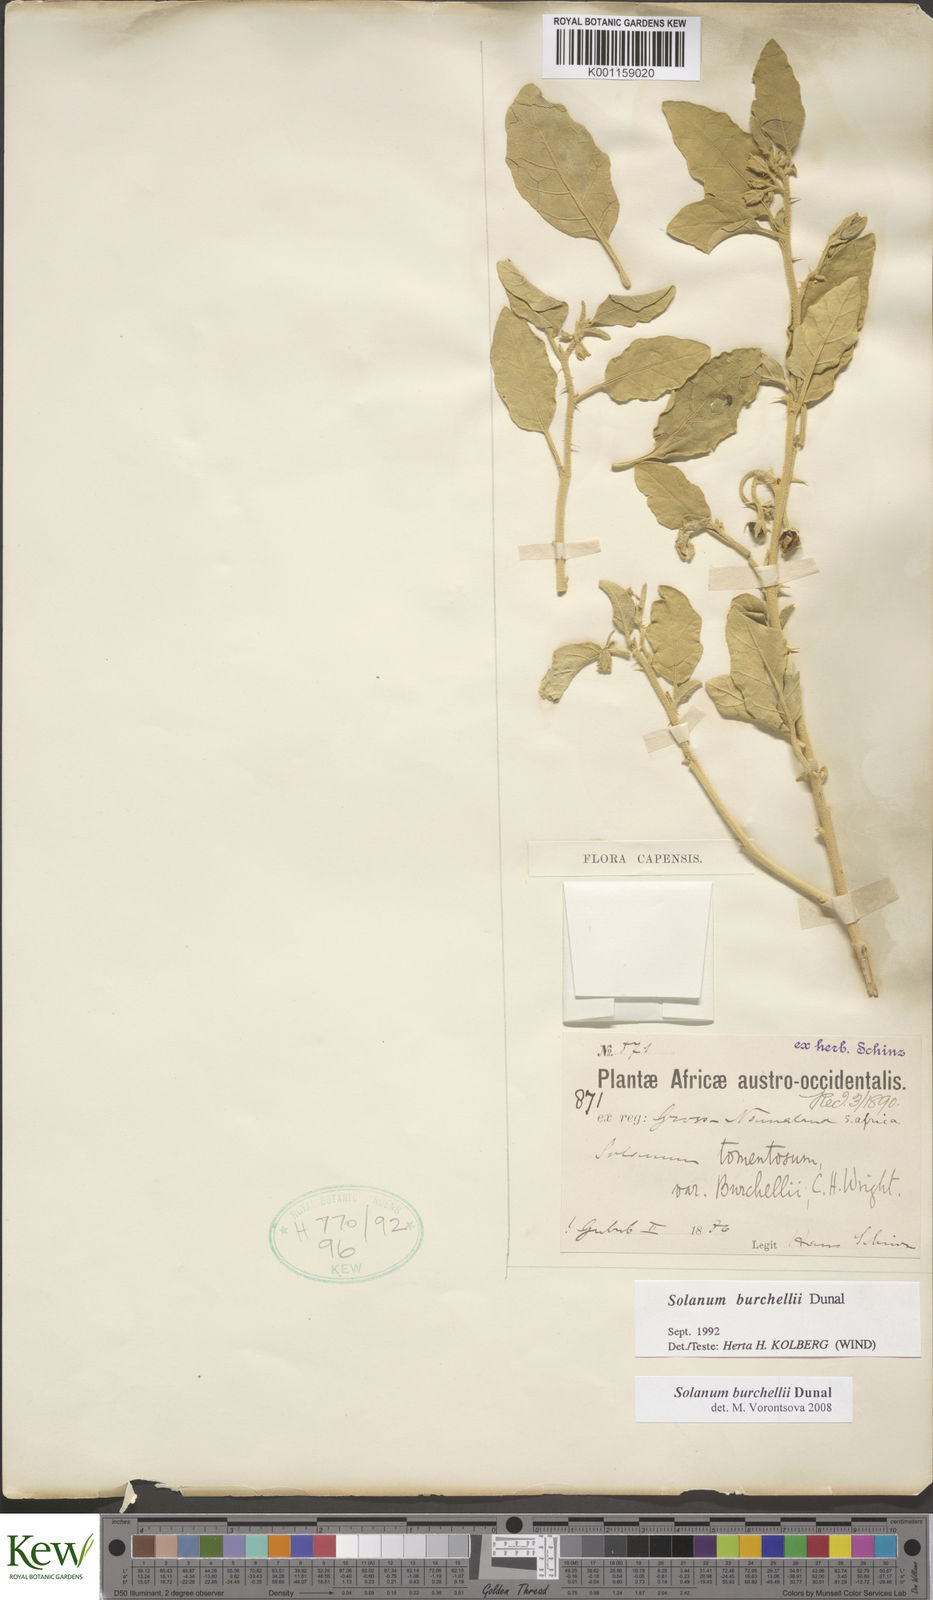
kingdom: Plantae
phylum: Tracheophyta
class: Magnoliopsida
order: Solanales
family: Solanaceae
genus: Solanum
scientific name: Solanum burchellii
